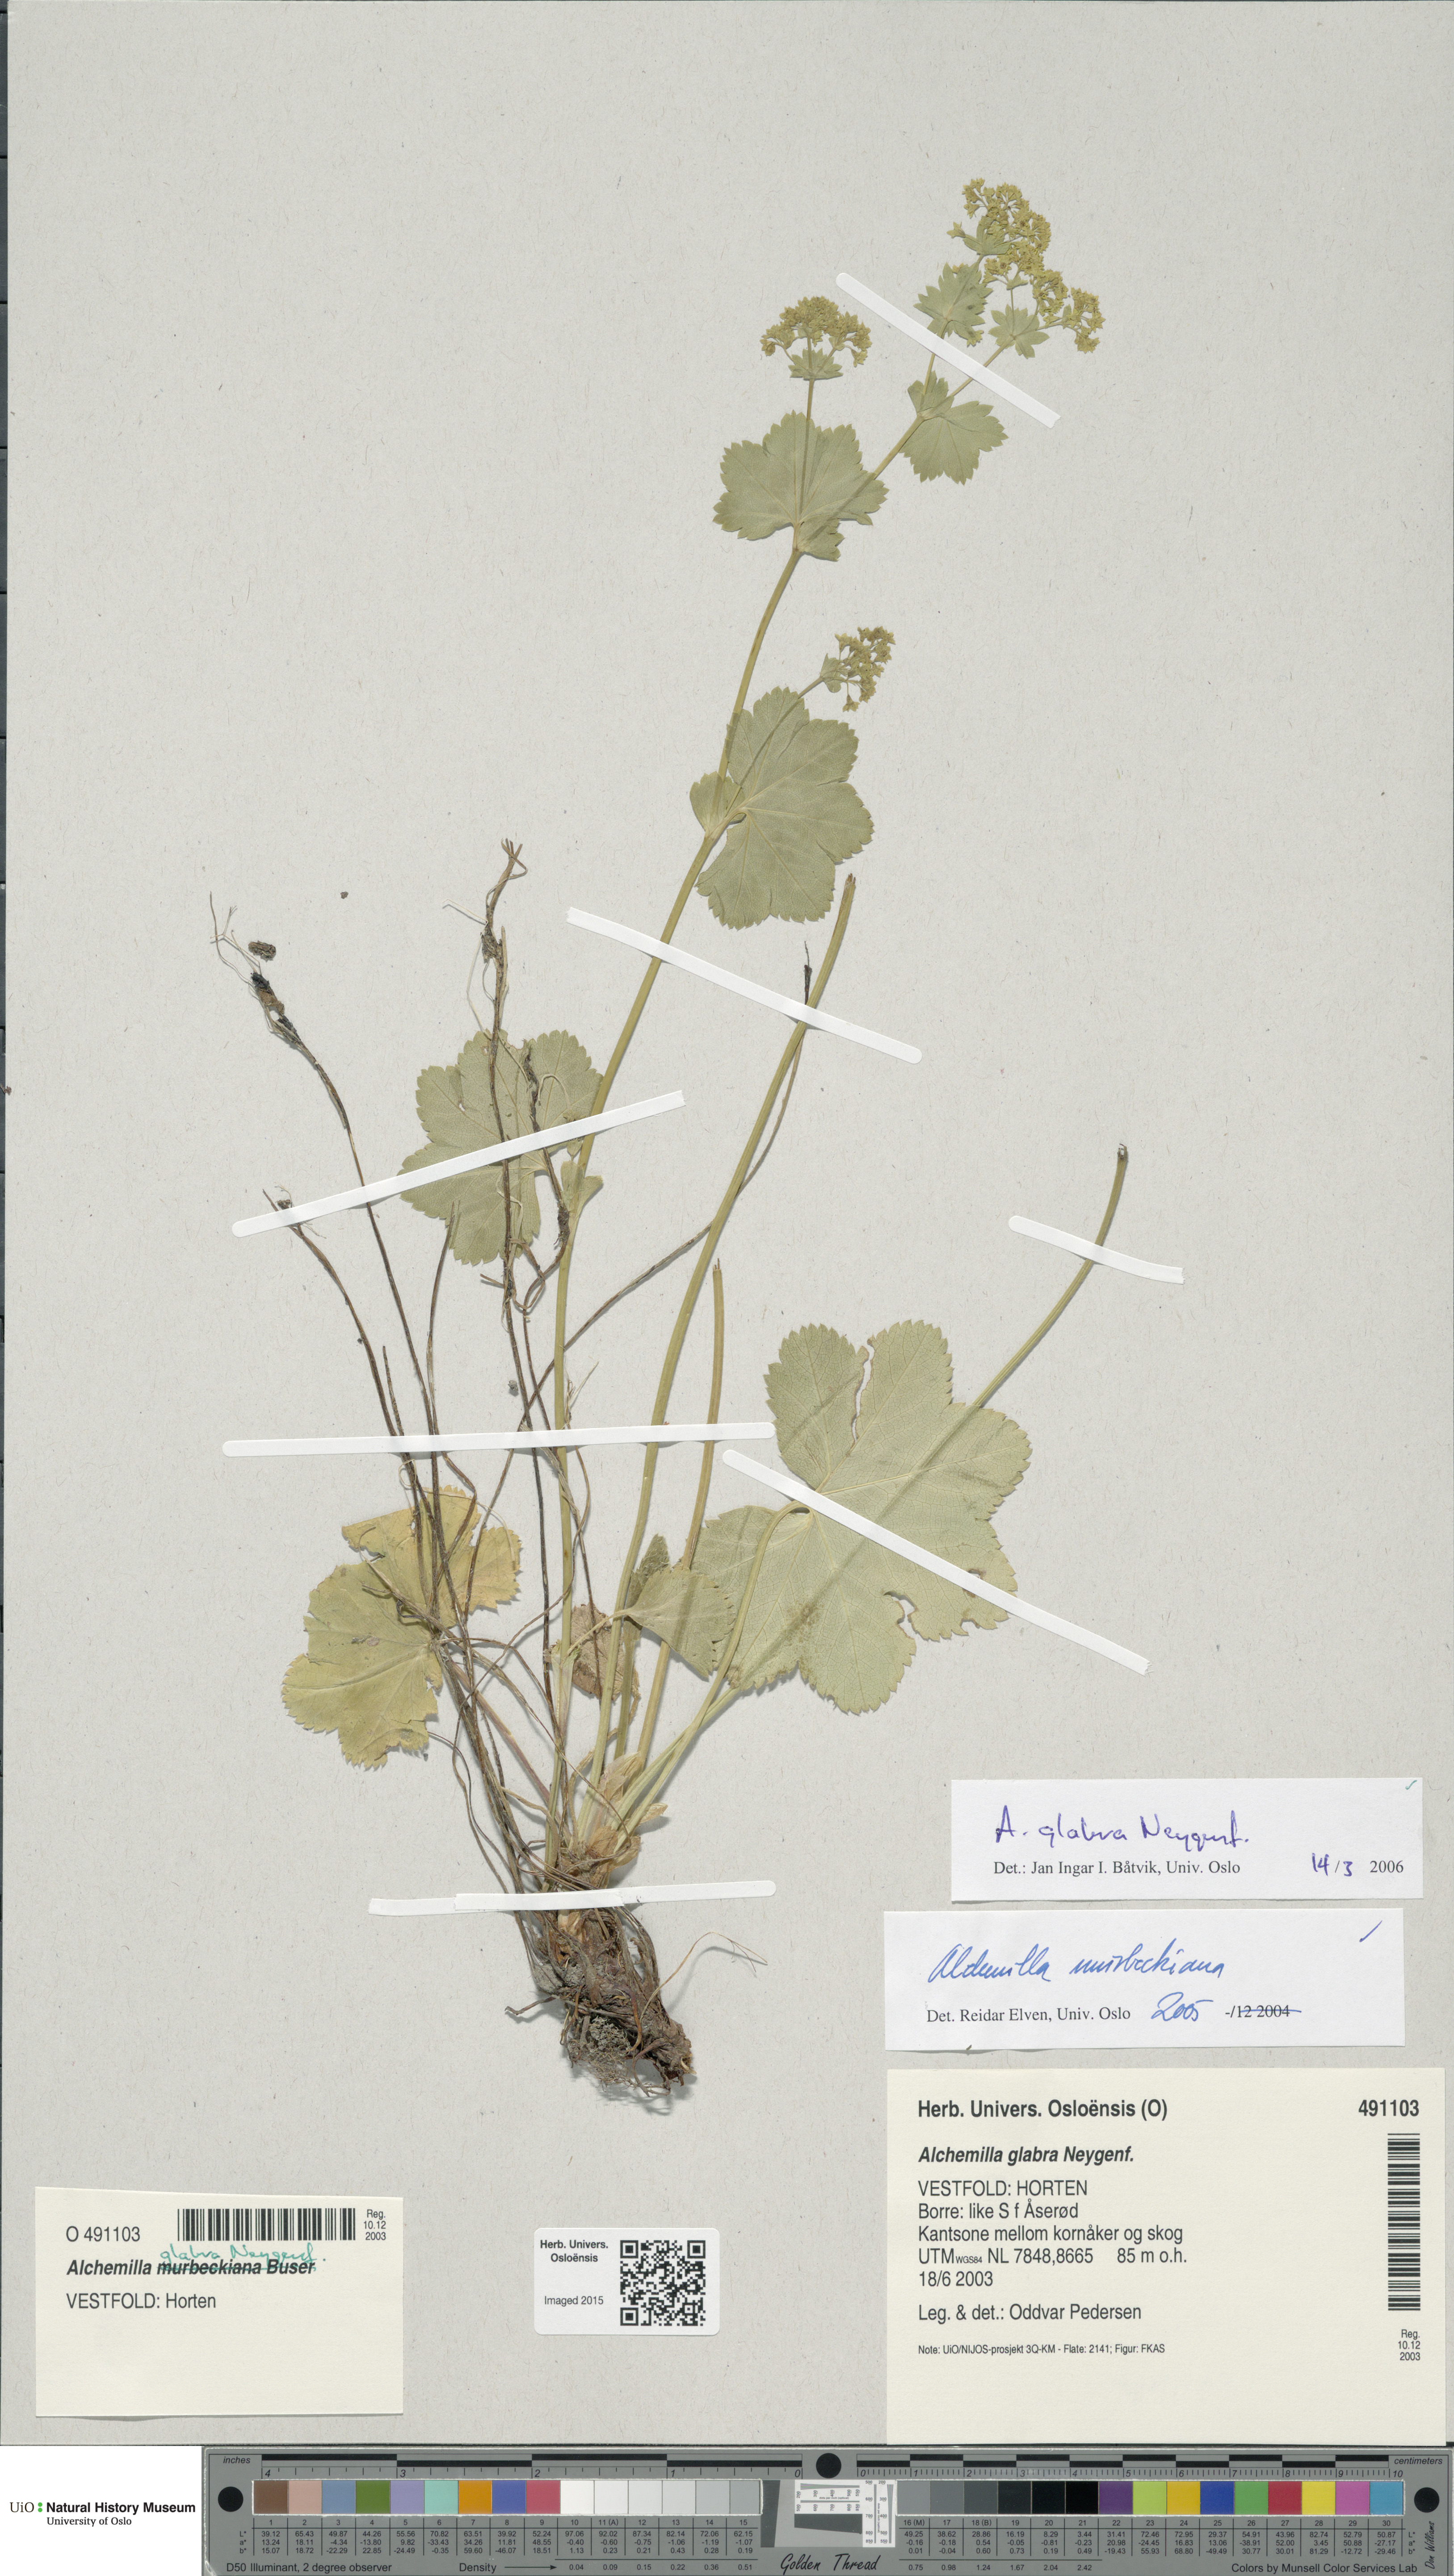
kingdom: Plantae
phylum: Tracheophyta
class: Magnoliopsida
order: Rosales
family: Rosaceae
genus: Alchemilla
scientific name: Alchemilla glabra
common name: Smooth lady's-mantle
